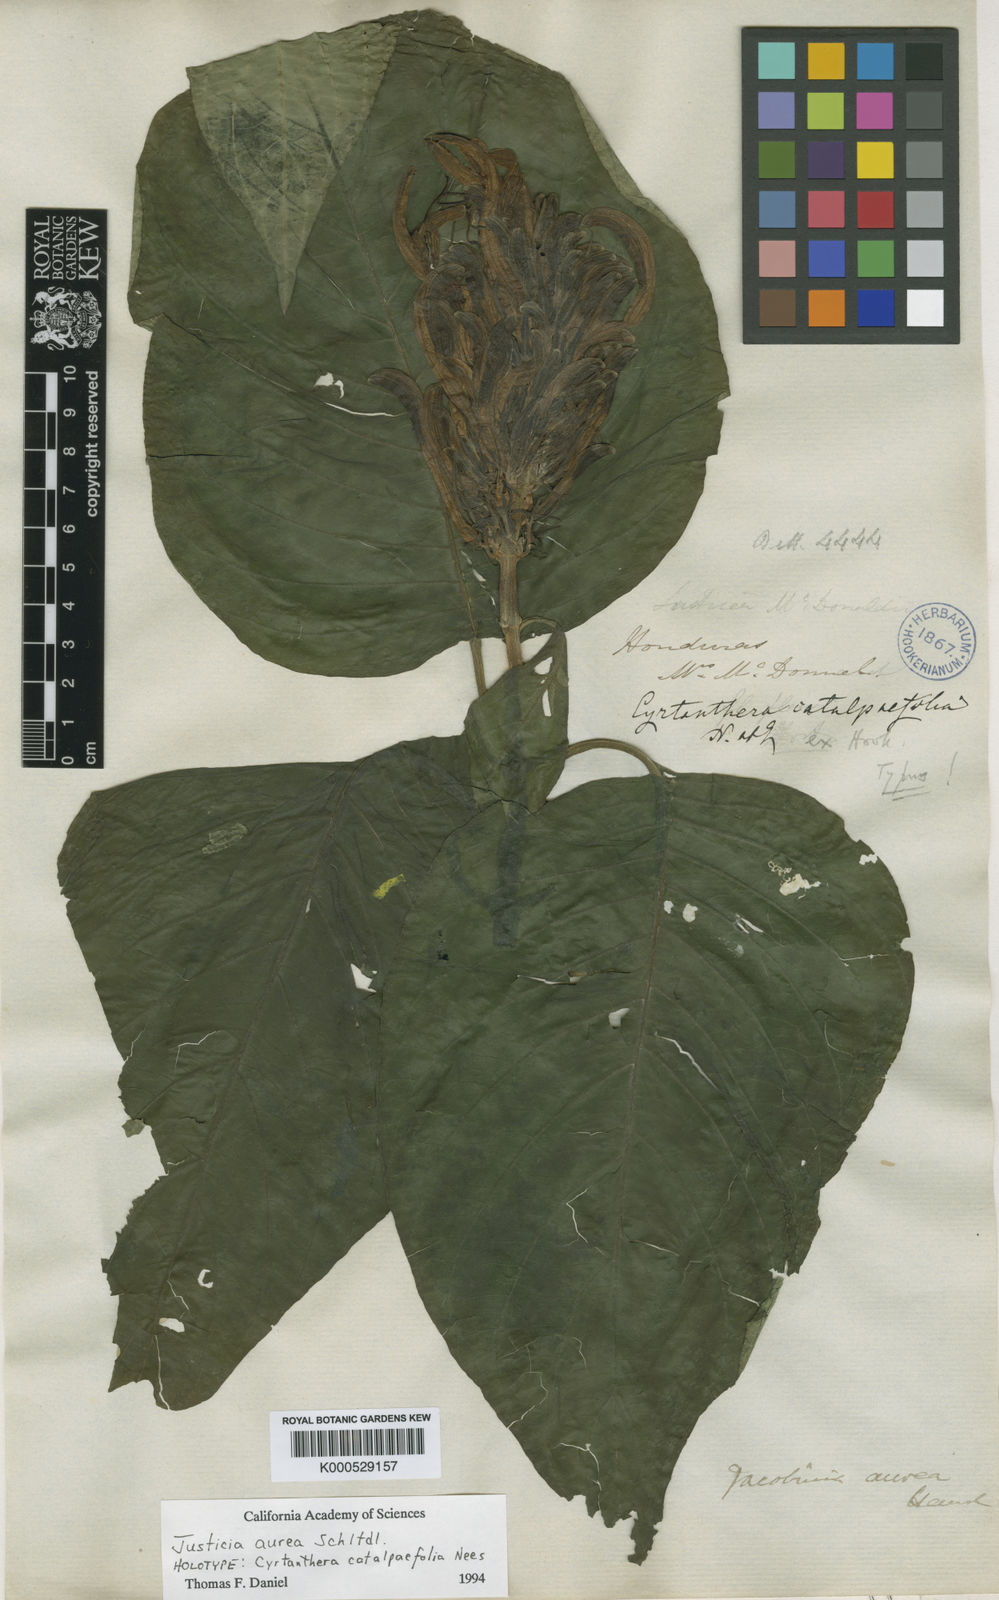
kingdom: Plantae
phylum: Tracheophyta
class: Magnoliopsida
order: Lamiales
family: Acanthaceae
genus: Justicia
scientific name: Justicia aurea
